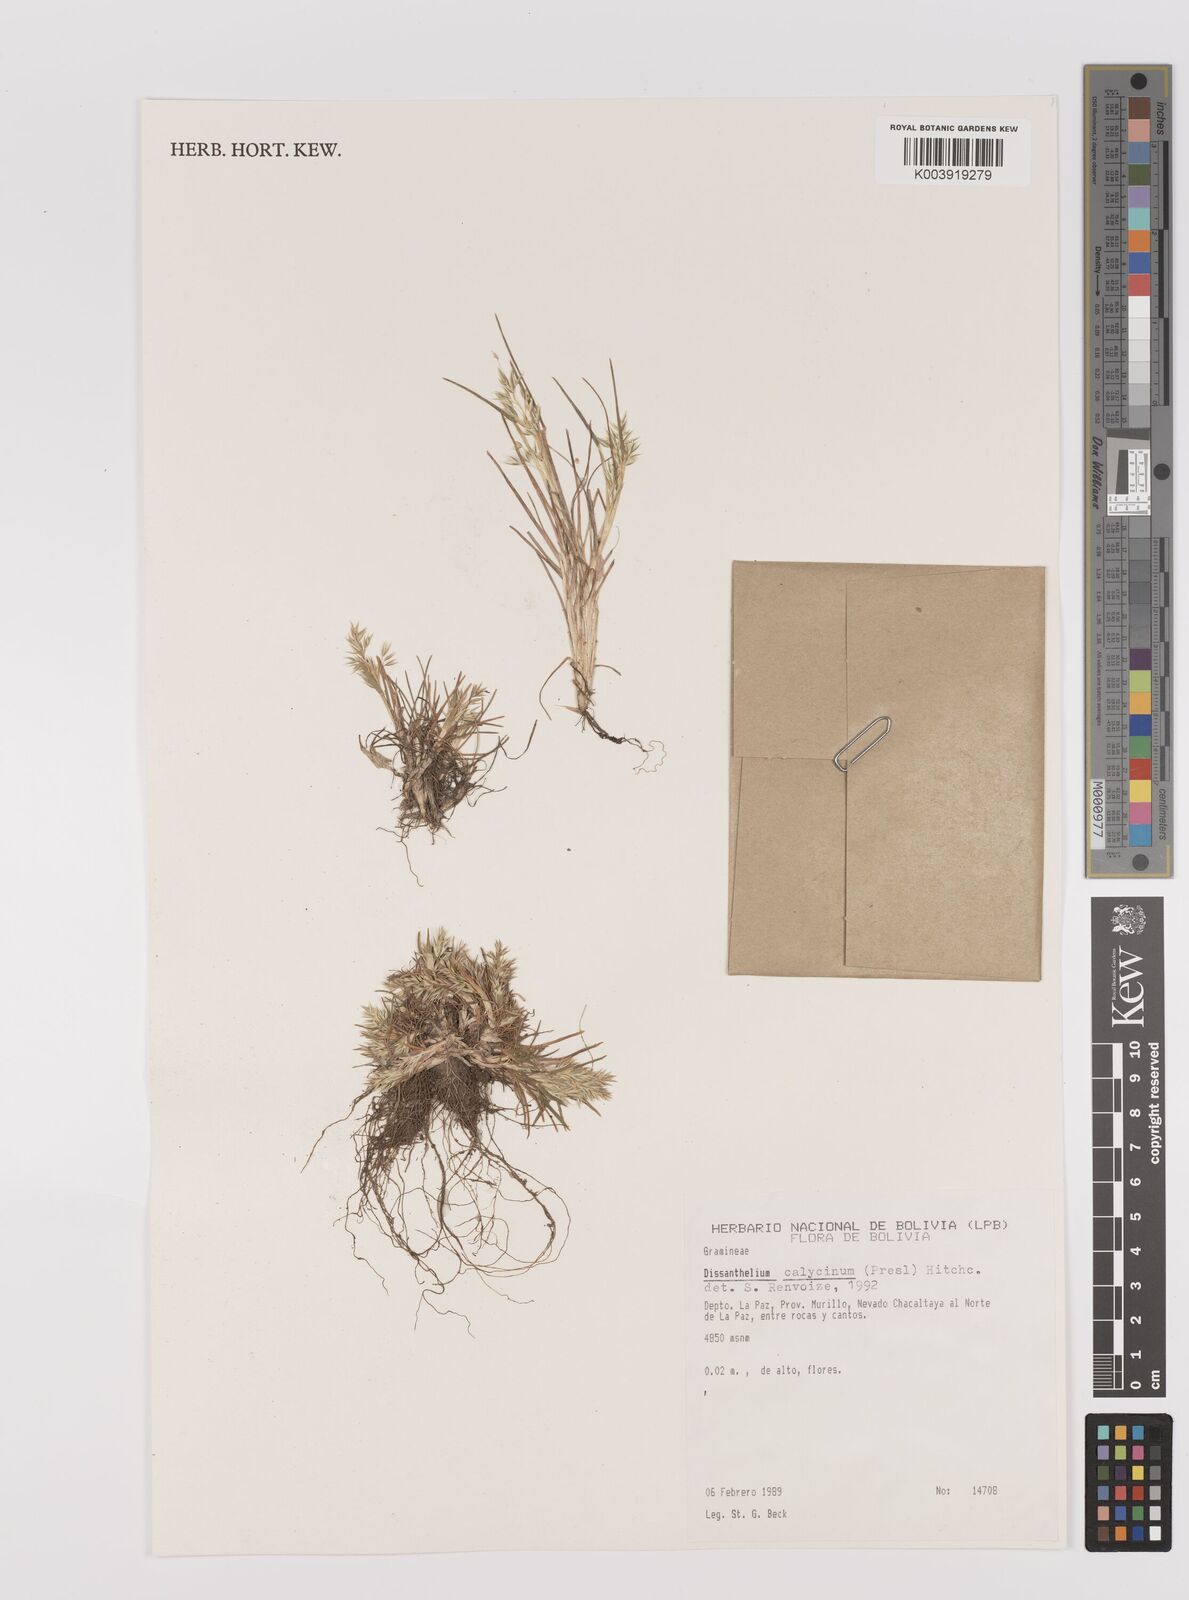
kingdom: Plantae
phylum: Tracheophyta
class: Liliopsida
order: Poales
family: Poaceae
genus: Poa
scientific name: Poa calycina
